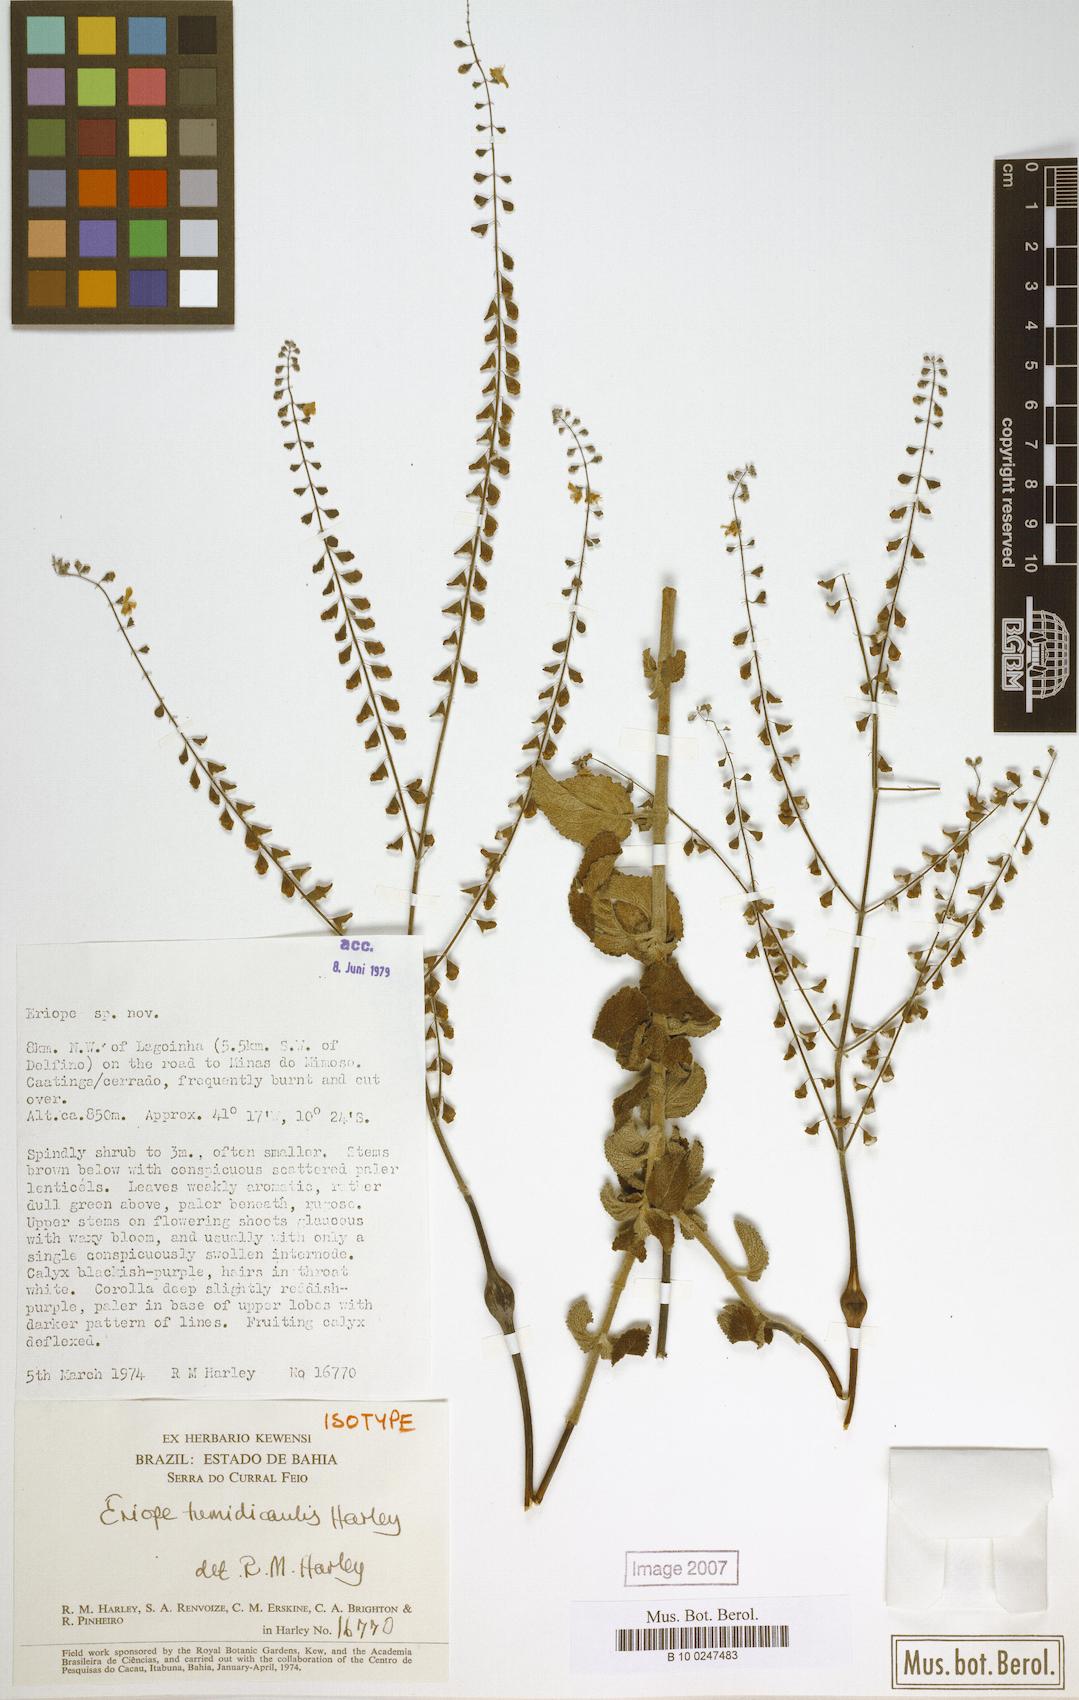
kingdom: Plantae
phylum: Tracheophyta
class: Magnoliopsida
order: Lamiales
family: Lamiaceae
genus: Eriope
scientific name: Eriope tumidicaulis
